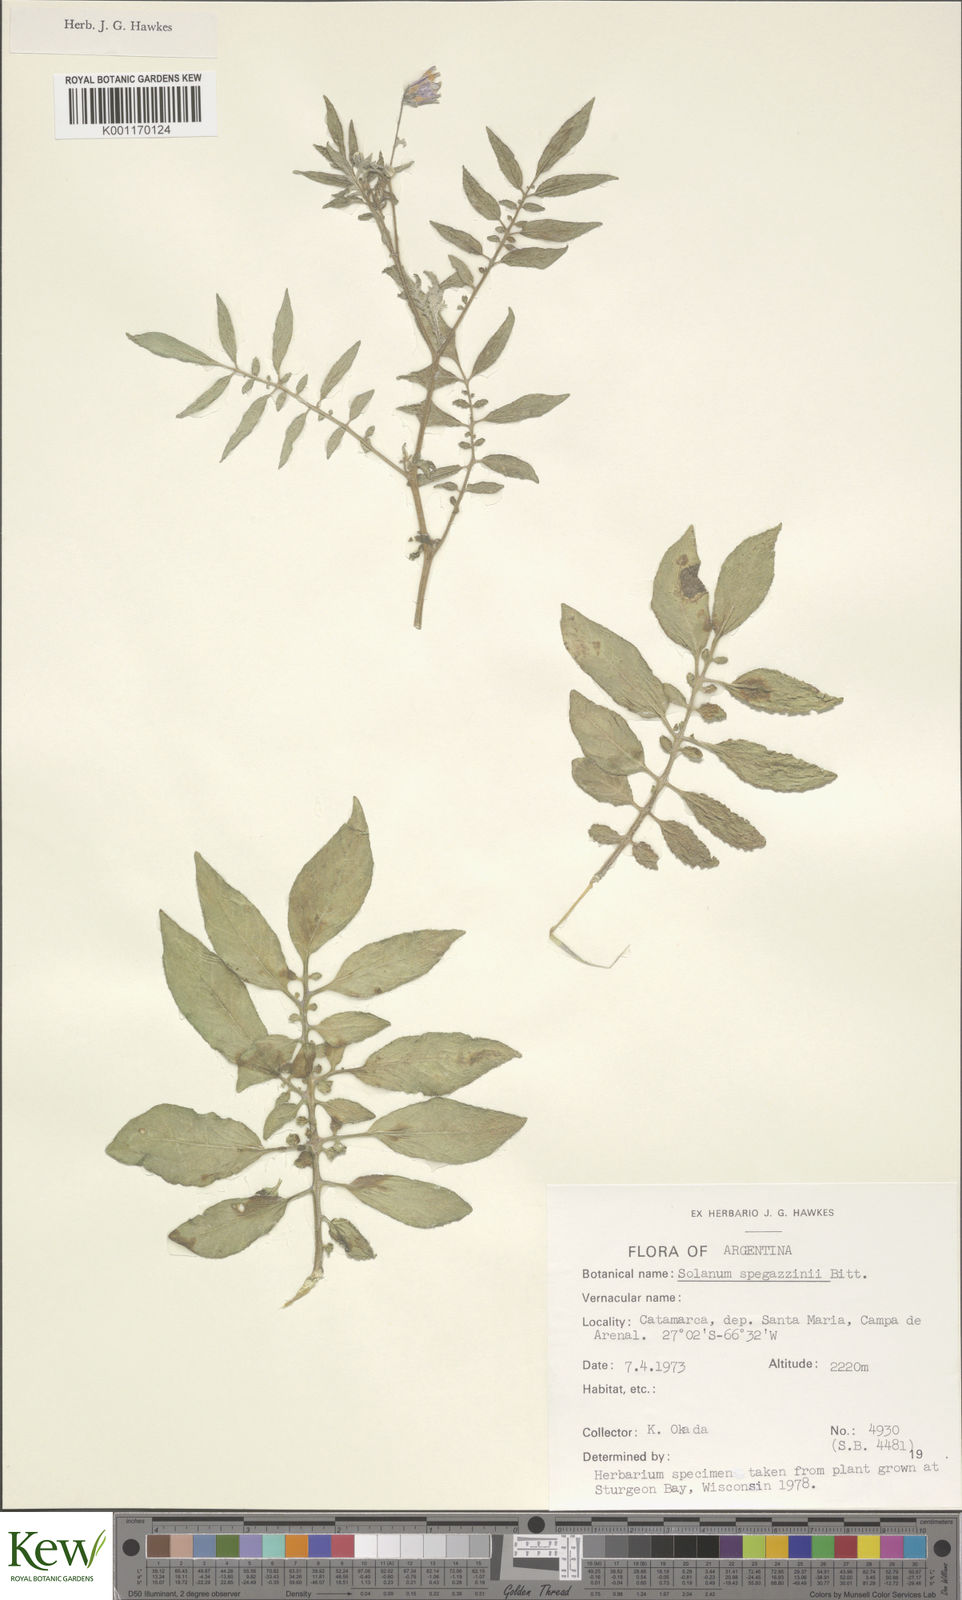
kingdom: Plantae
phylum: Tracheophyta
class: Magnoliopsida
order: Solanales
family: Solanaceae
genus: Solanum
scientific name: Solanum brevicaule
